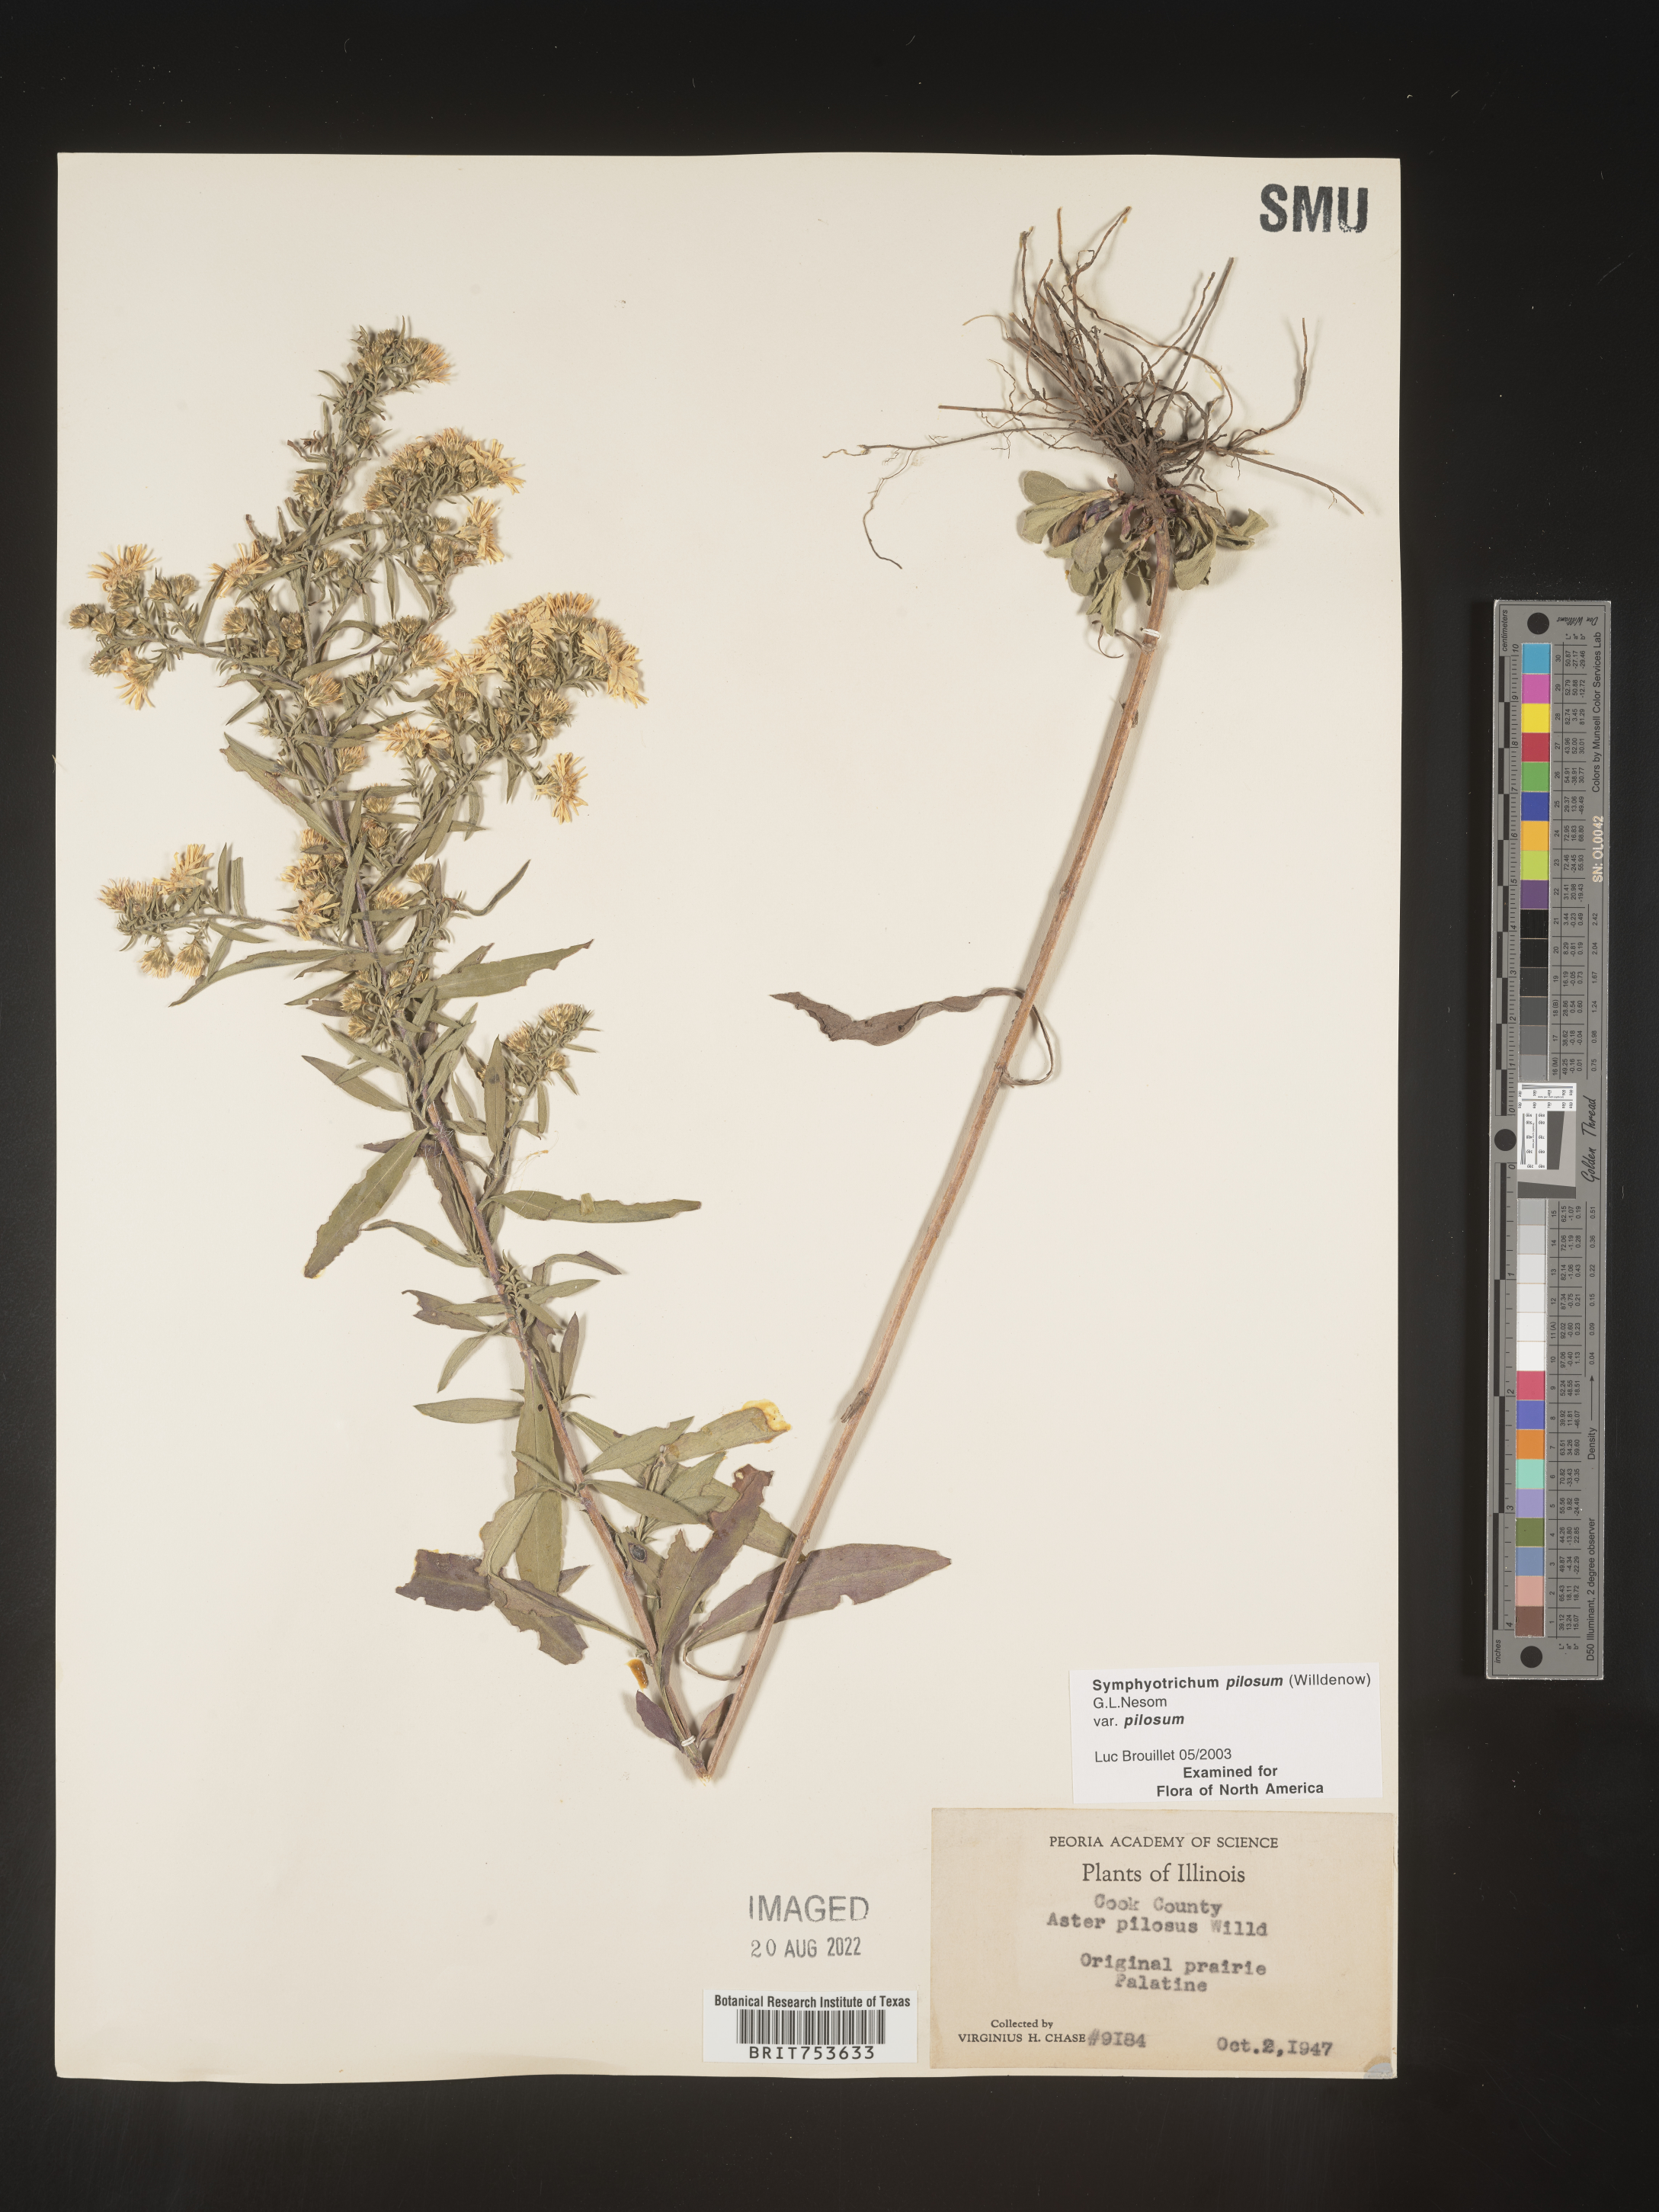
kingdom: Plantae
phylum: Tracheophyta
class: Magnoliopsida
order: Asterales
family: Asteraceae
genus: Symphyotrichum
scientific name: Symphyotrichum pilosum
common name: Awl aster
